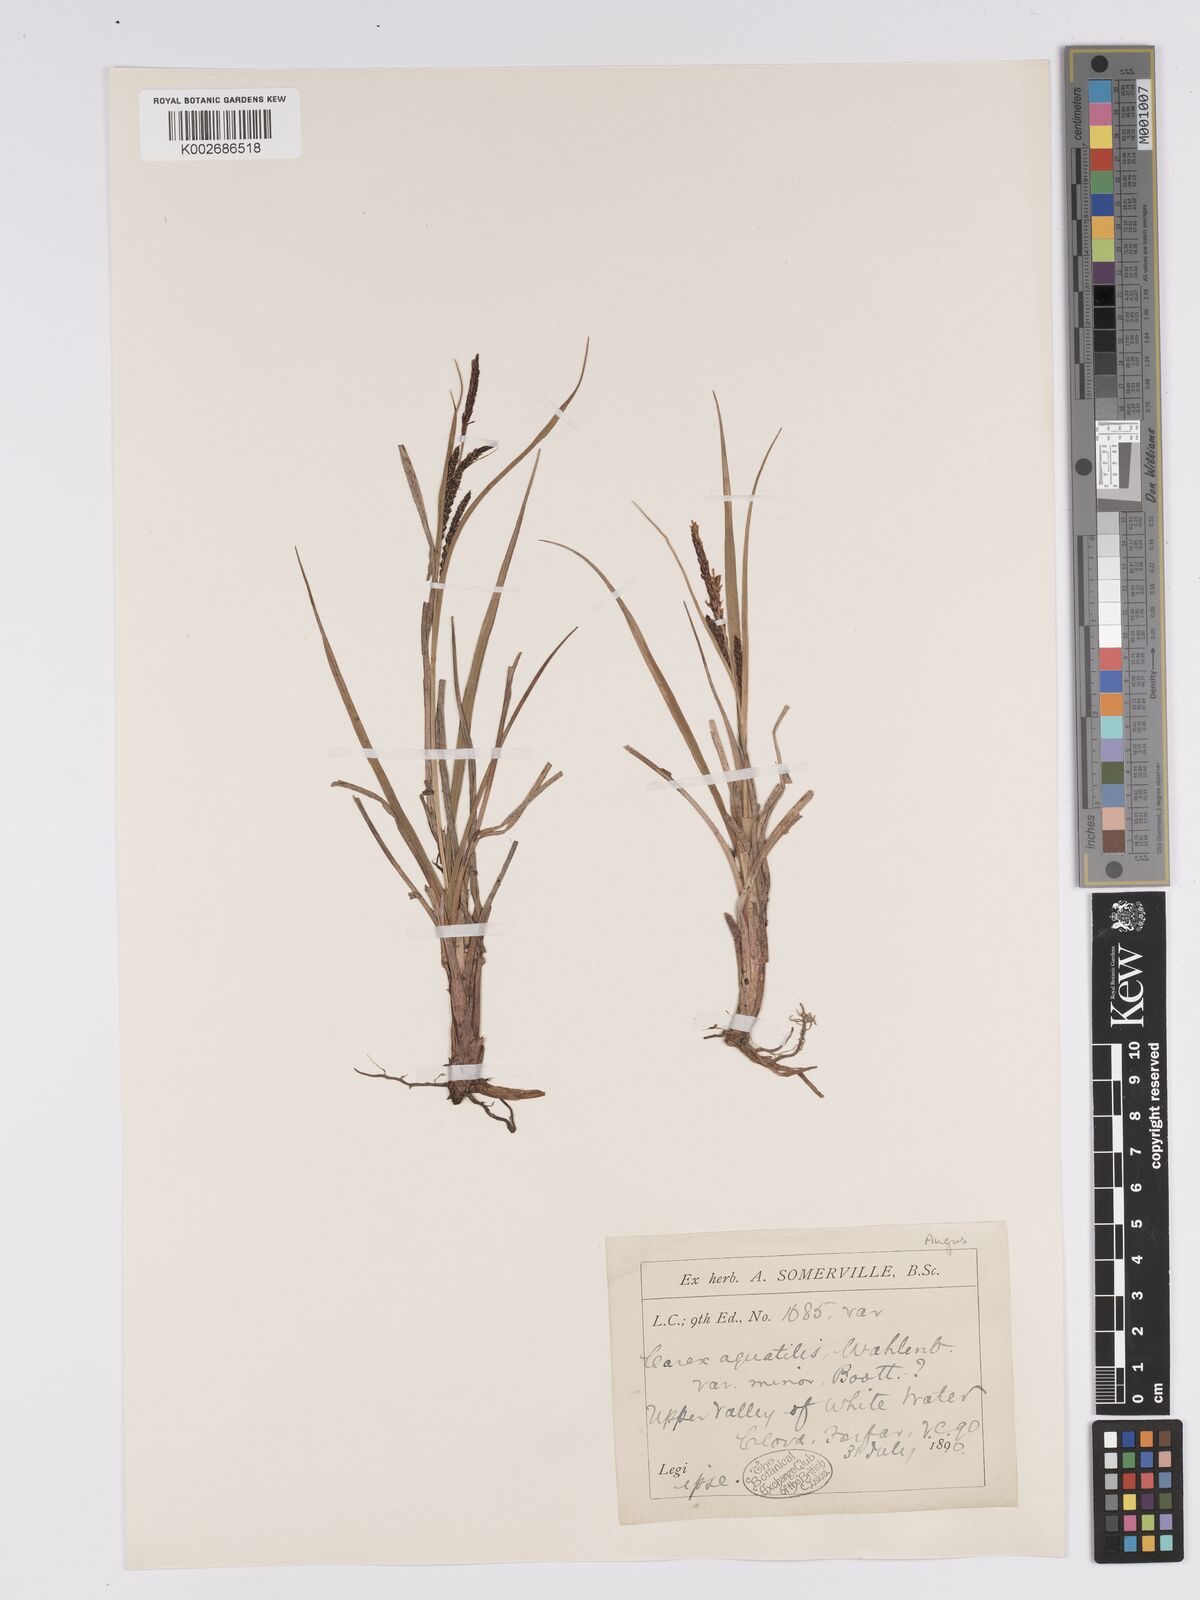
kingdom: Plantae
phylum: Tracheophyta
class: Liliopsida
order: Poales
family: Cyperaceae
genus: Carex
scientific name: Carex aquatilis
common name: Water sedge
